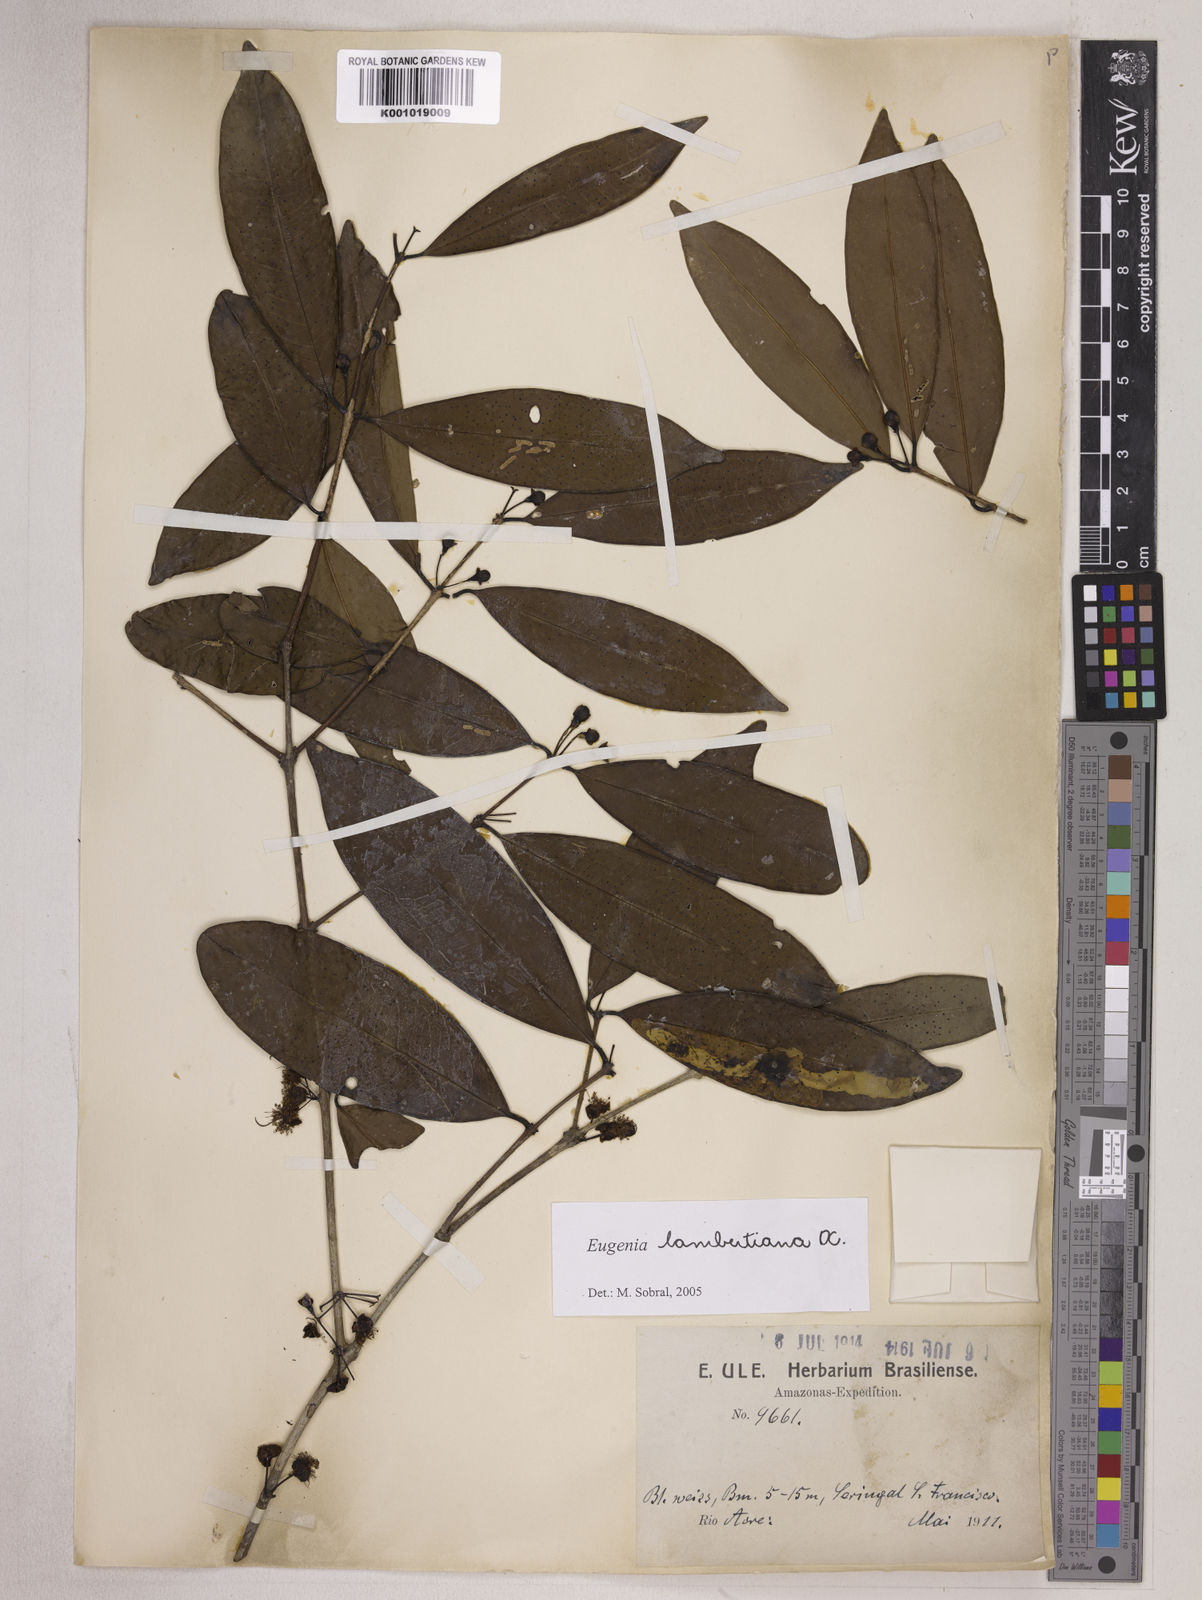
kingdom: Plantae
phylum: Tracheophyta
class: Magnoliopsida
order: Myrtales
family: Myrtaceae
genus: Eugenia
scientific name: Eugenia lambertiana
